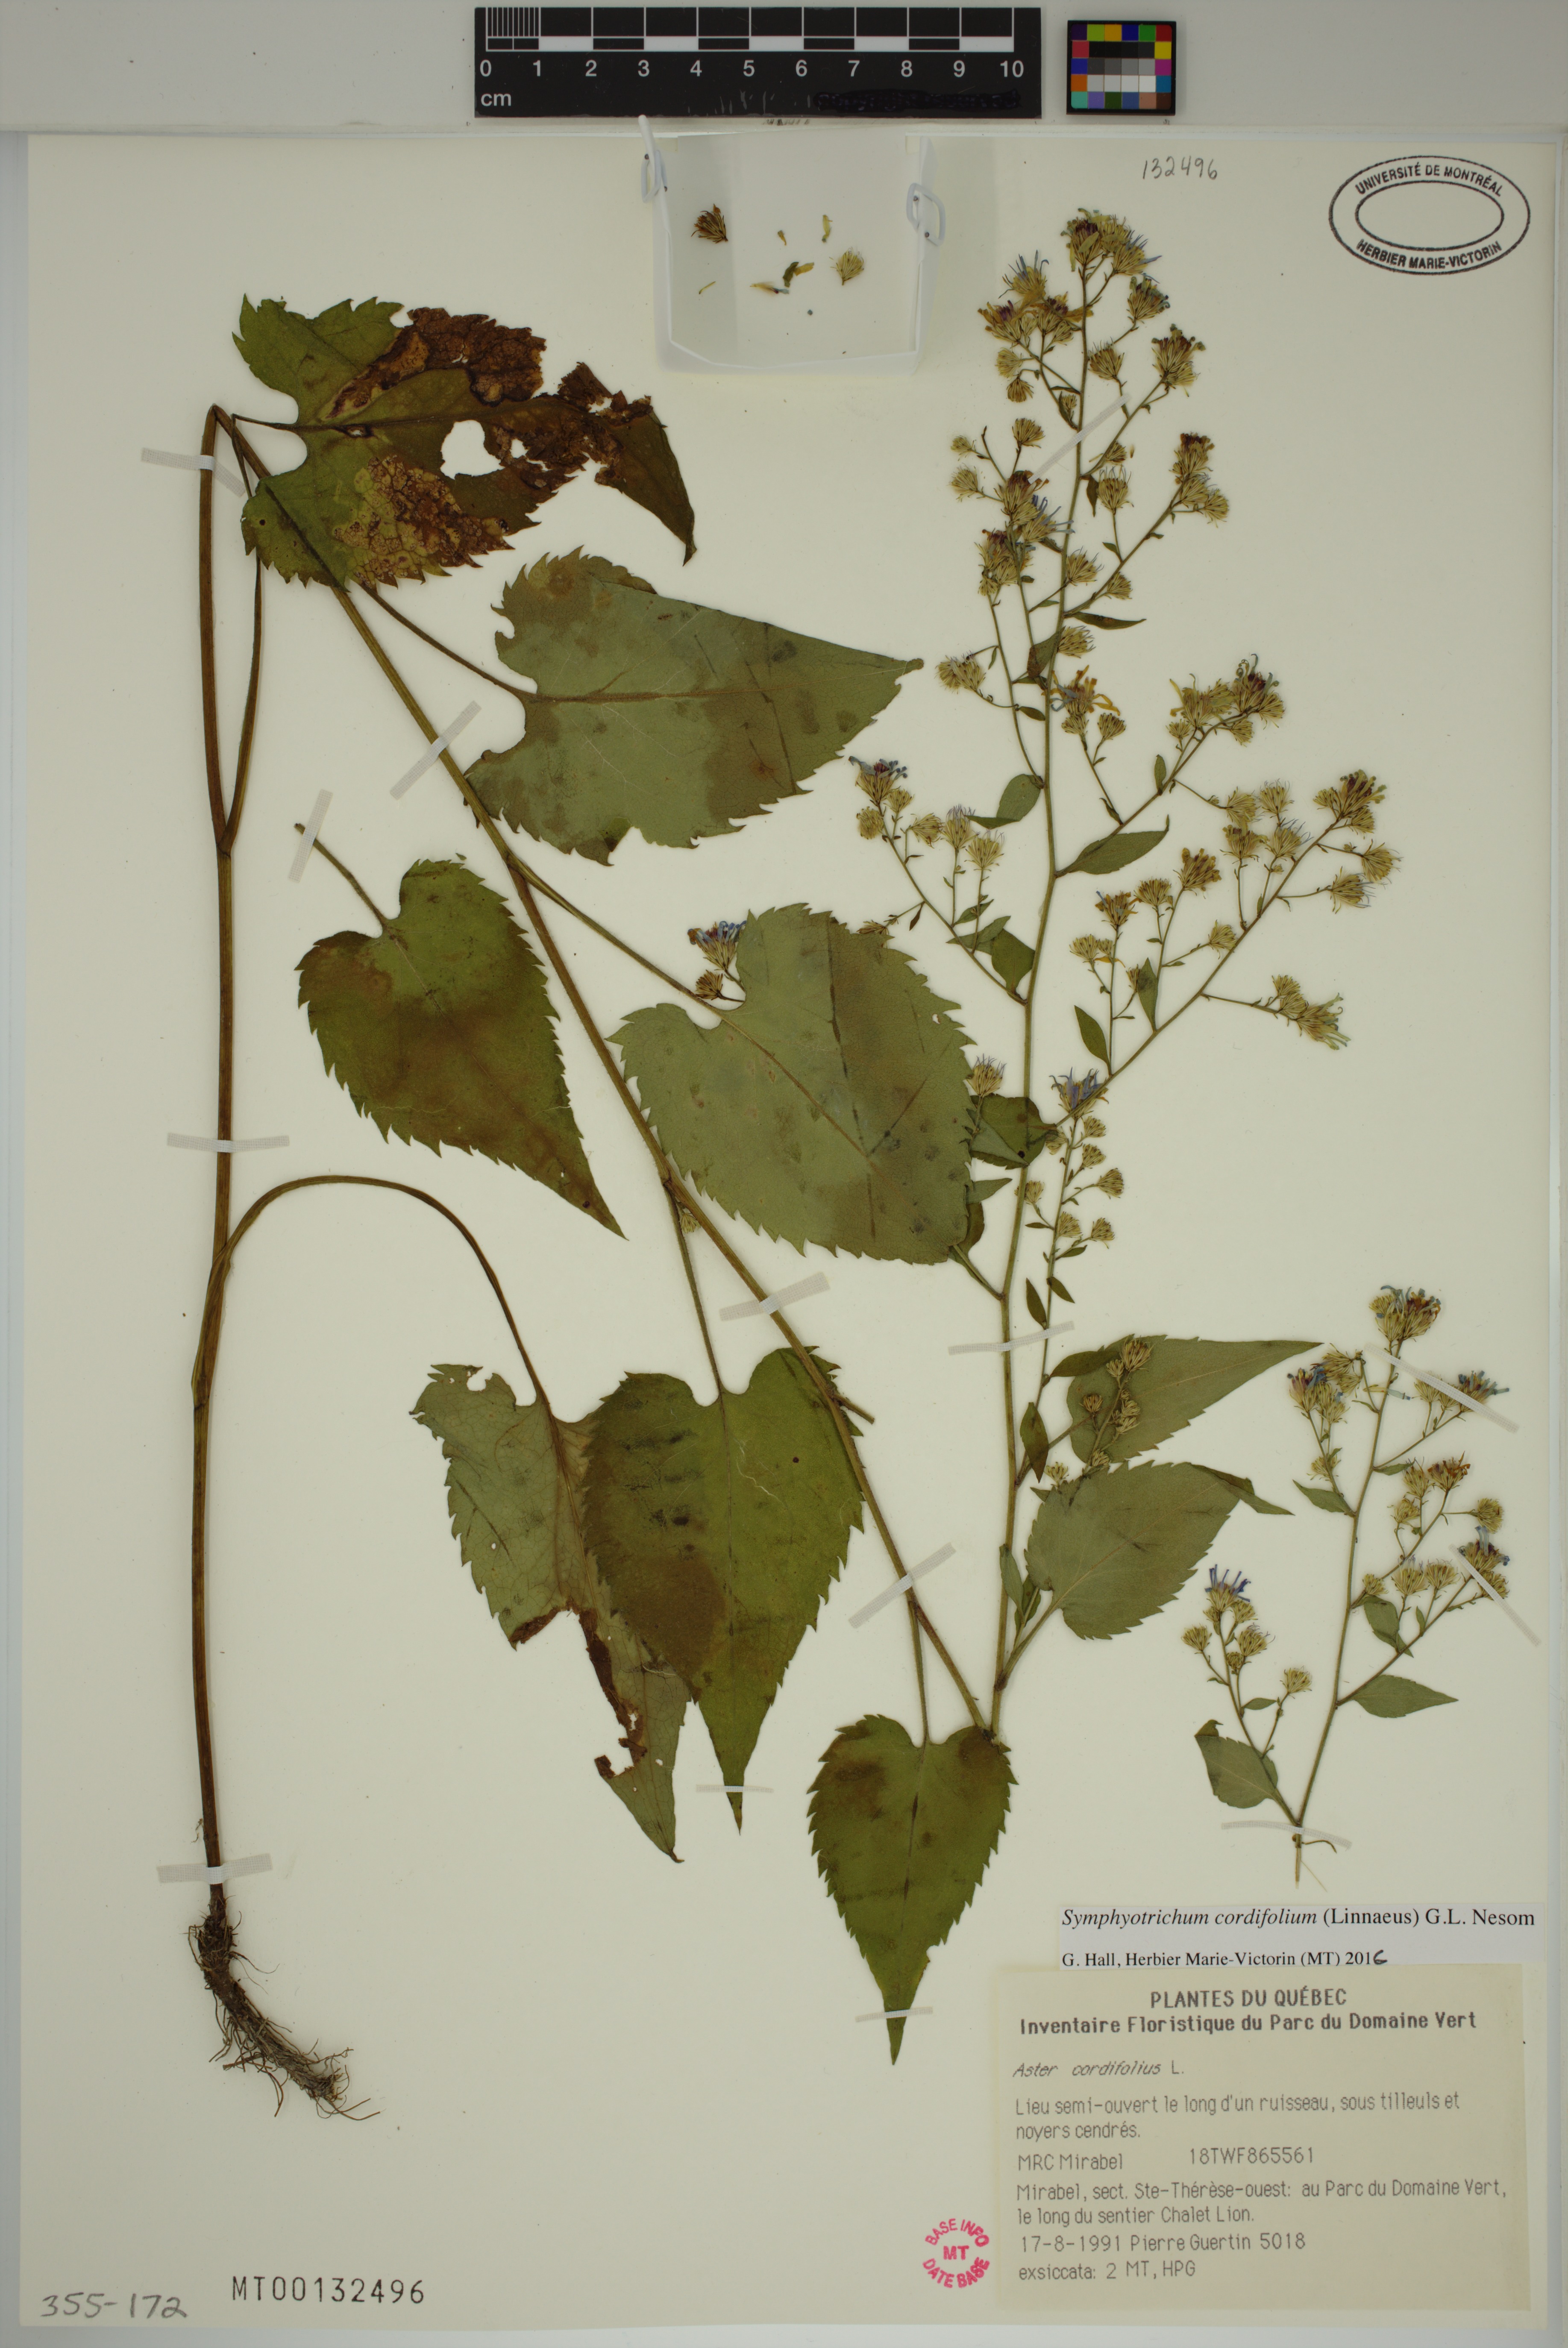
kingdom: Plantae
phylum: Tracheophyta
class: Magnoliopsida
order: Asterales
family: Asteraceae
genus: Symphyotrichum
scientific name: Symphyotrichum cordifolium
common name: Beeweed
